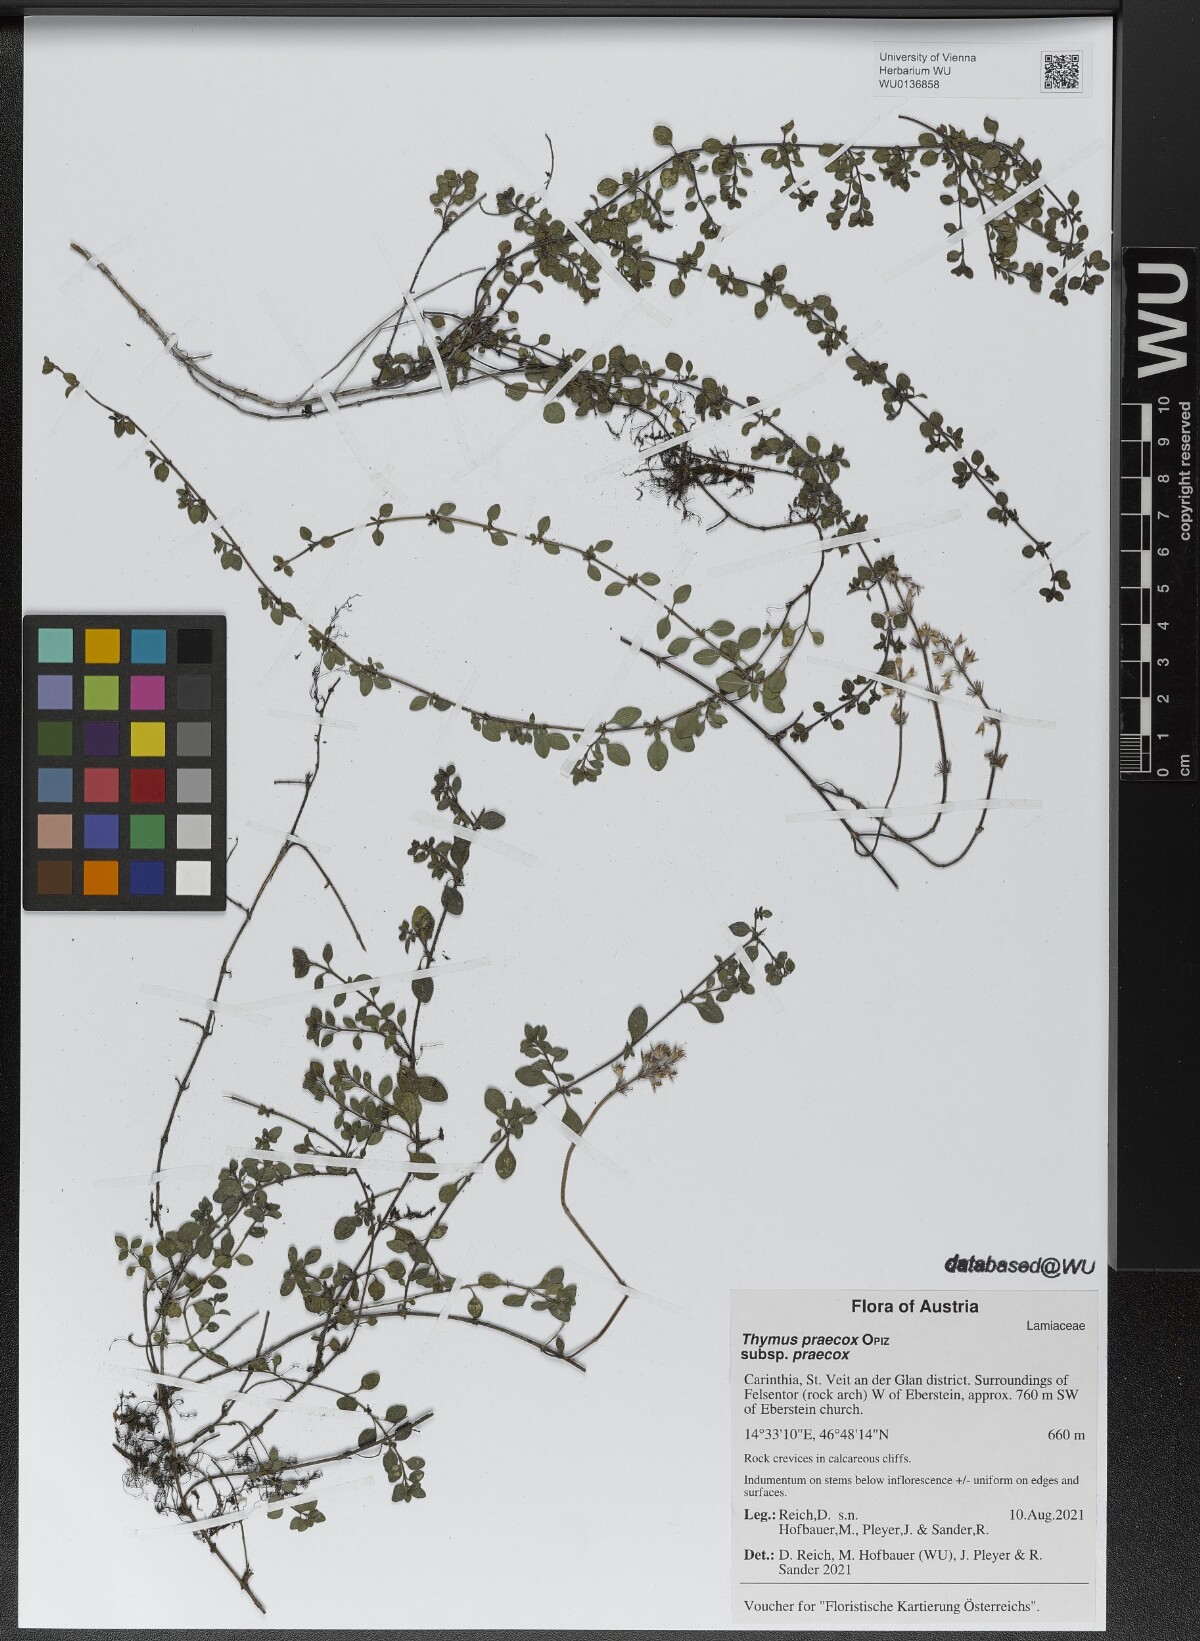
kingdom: Plantae
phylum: Tracheophyta
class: Magnoliopsida
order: Lamiales
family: Lamiaceae
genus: Thymus
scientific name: Thymus praecox
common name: Wild thyme
